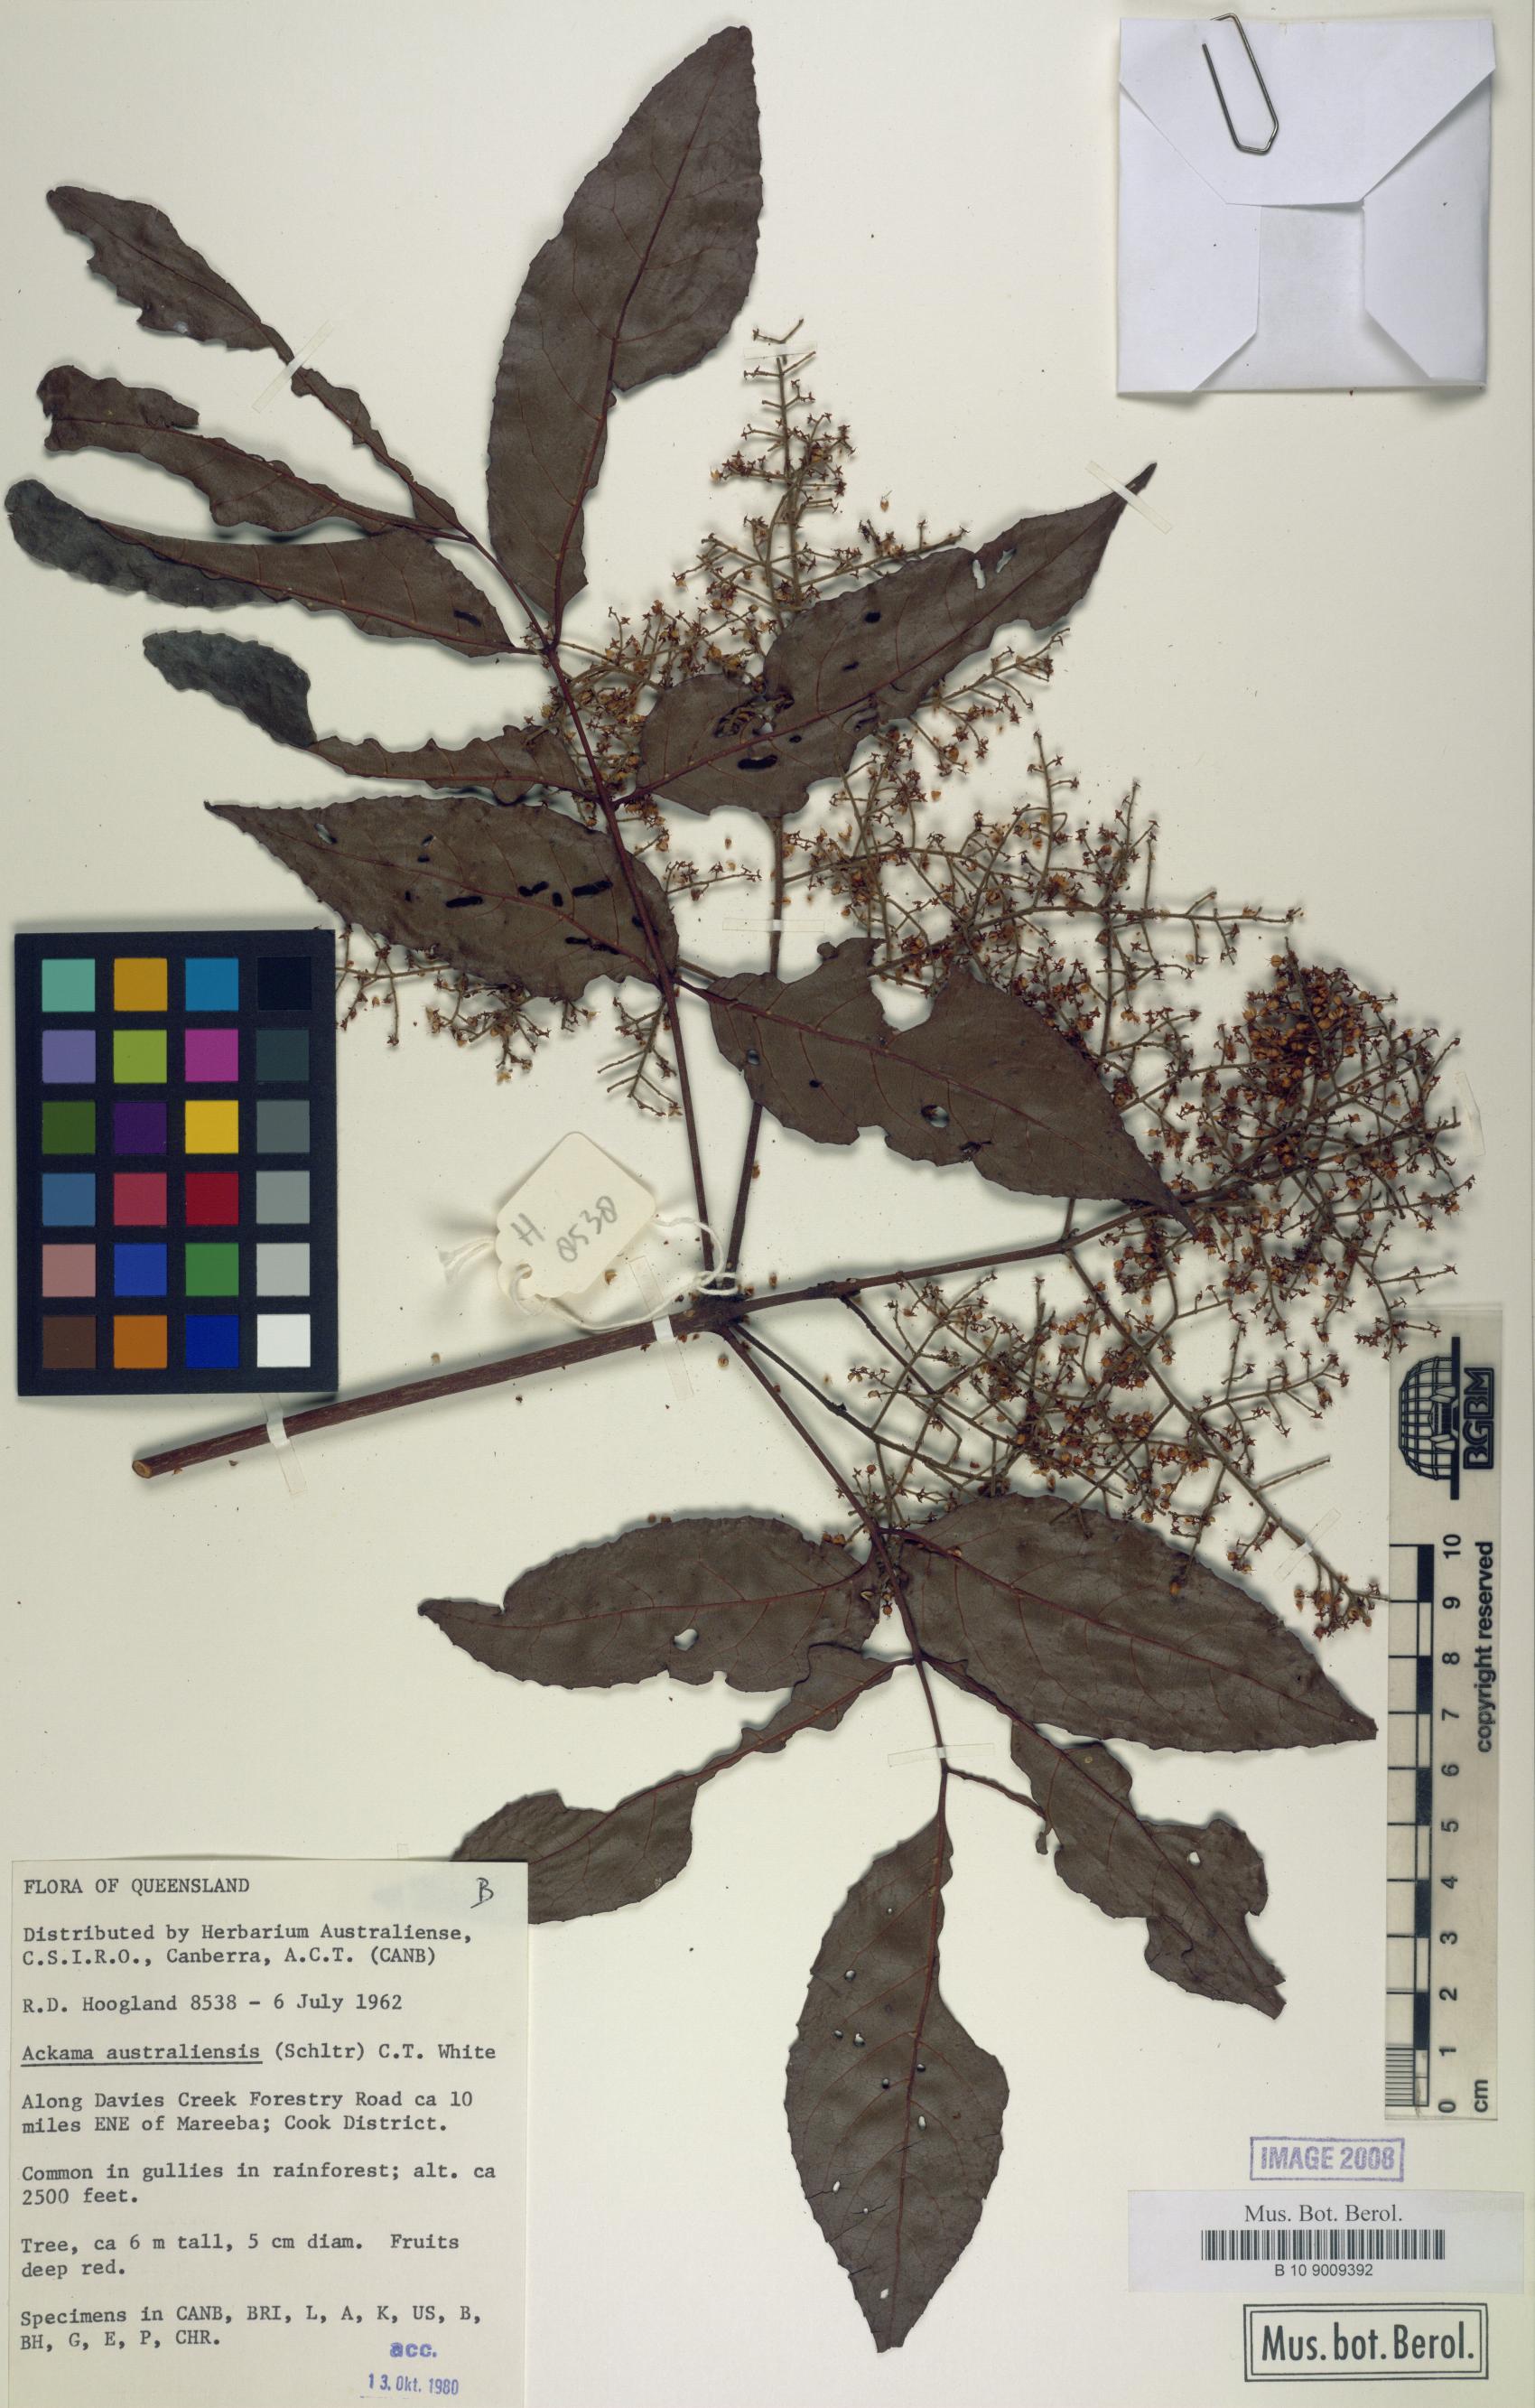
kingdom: Plantae
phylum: Tracheophyta
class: Magnoliopsida
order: Oxalidales
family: Cunoniaceae
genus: Ackama
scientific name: Ackama australiensis
